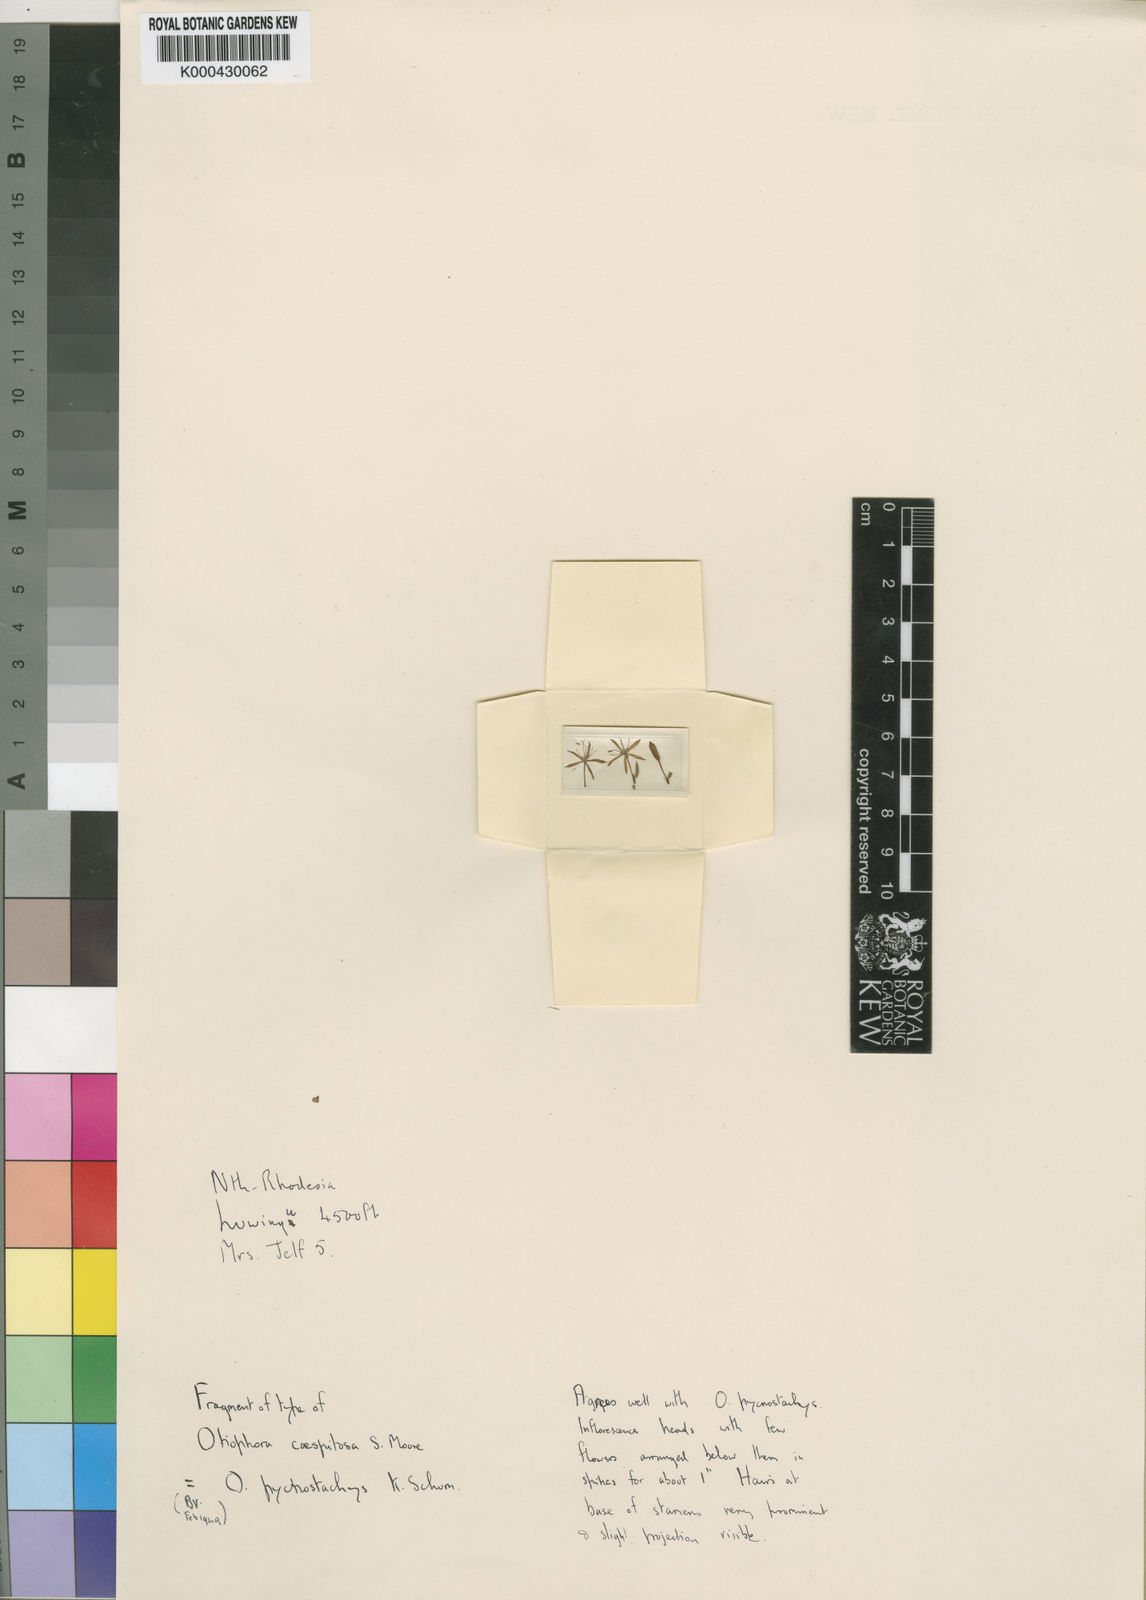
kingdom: Plantae
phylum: Tracheophyta
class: Magnoliopsida
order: Gentianales
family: Rubiaceae
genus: Otiophora
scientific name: Otiophora pycnostachys
